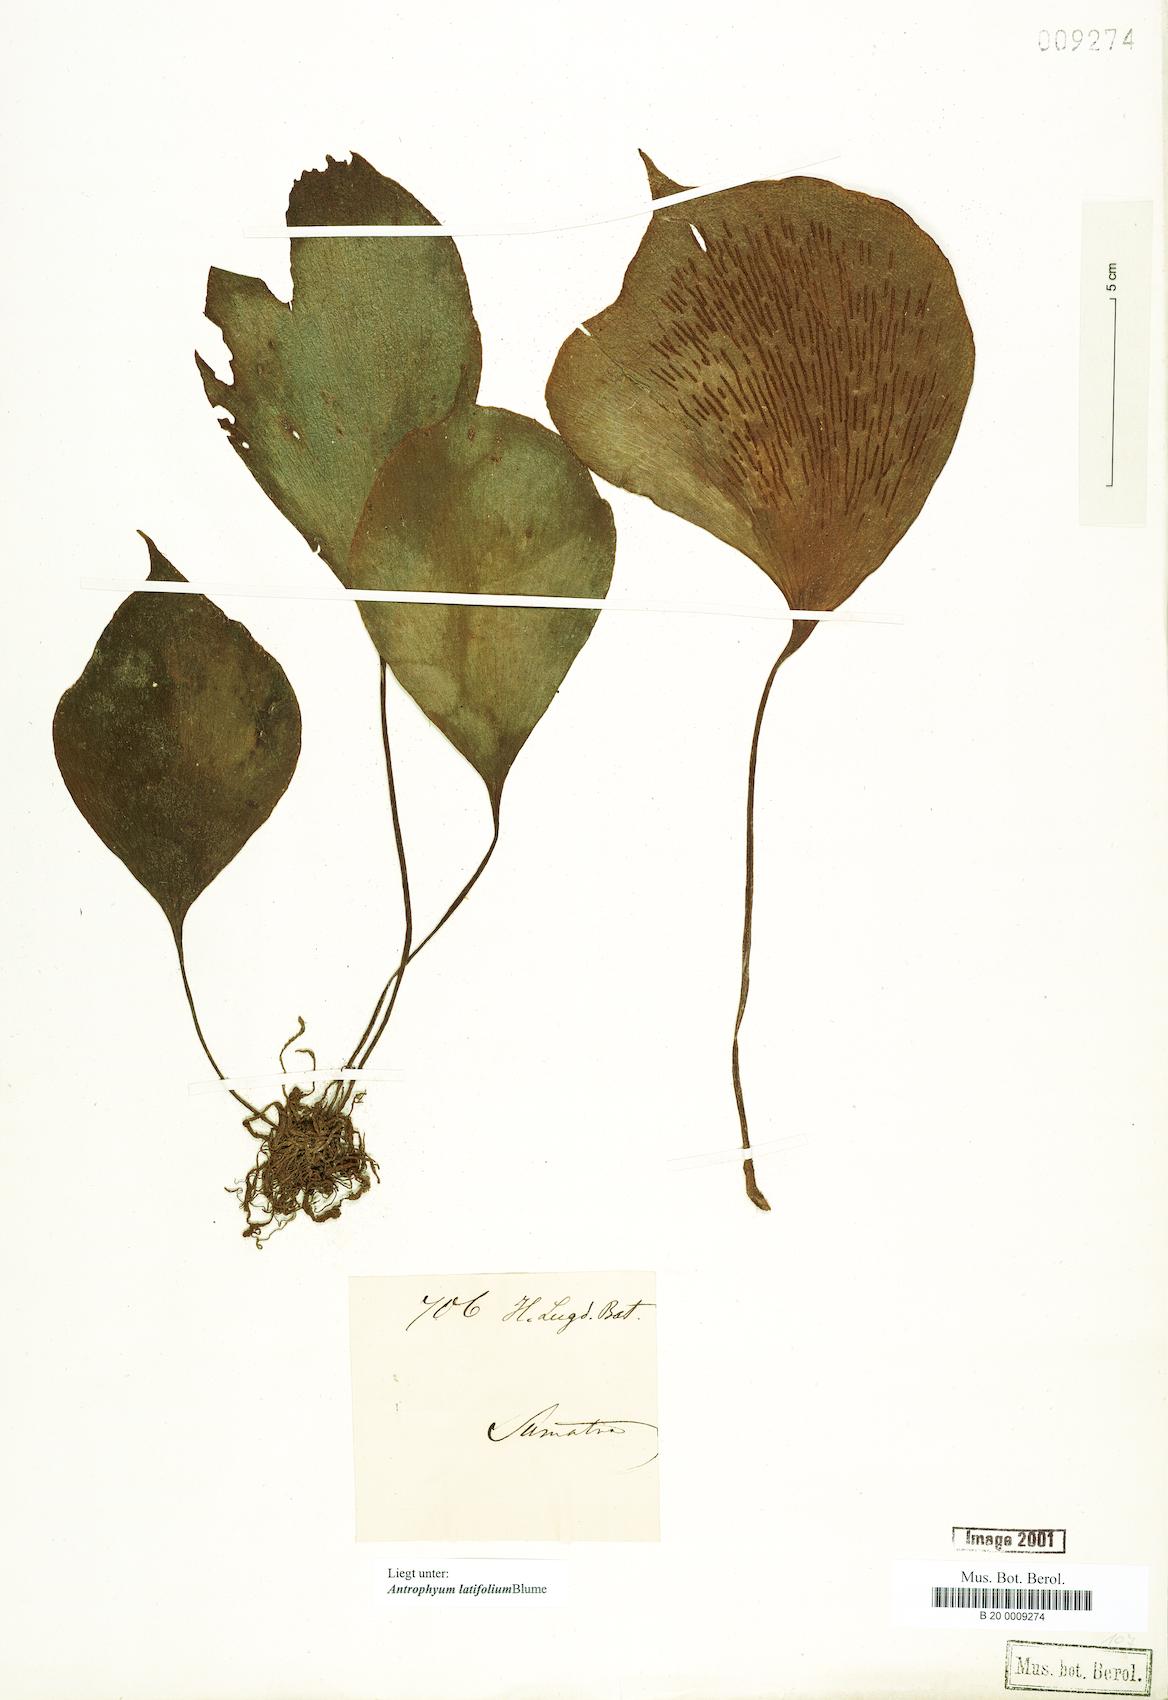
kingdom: Plantae
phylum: Tracheophyta
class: Polypodiopsida
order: Polypodiales
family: Pteridaceae
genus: Antrophyum
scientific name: Antrophyum latifolium
